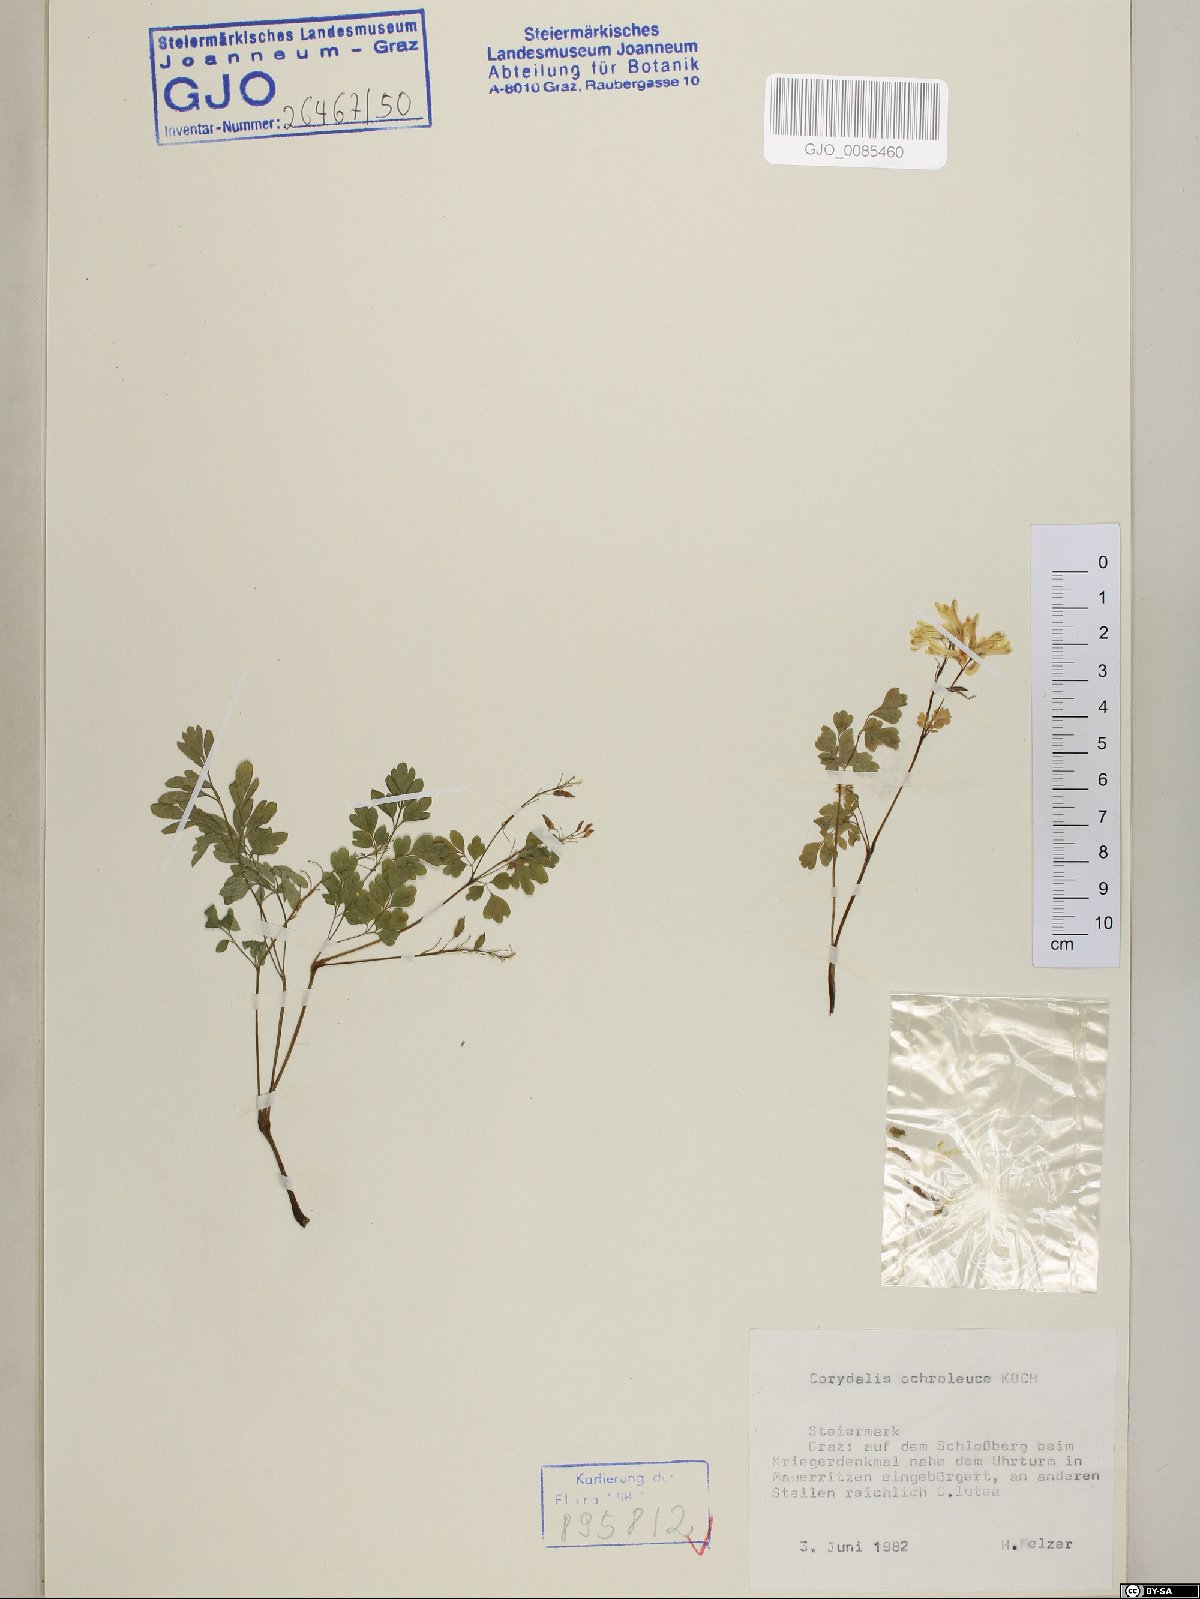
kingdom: Plantae
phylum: Tracheophyta
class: Magnoliopsida
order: Ranunculales
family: Papaveraceae
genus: Pseudofumaria
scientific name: Pseudofumaria alba
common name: Pale corydalis
